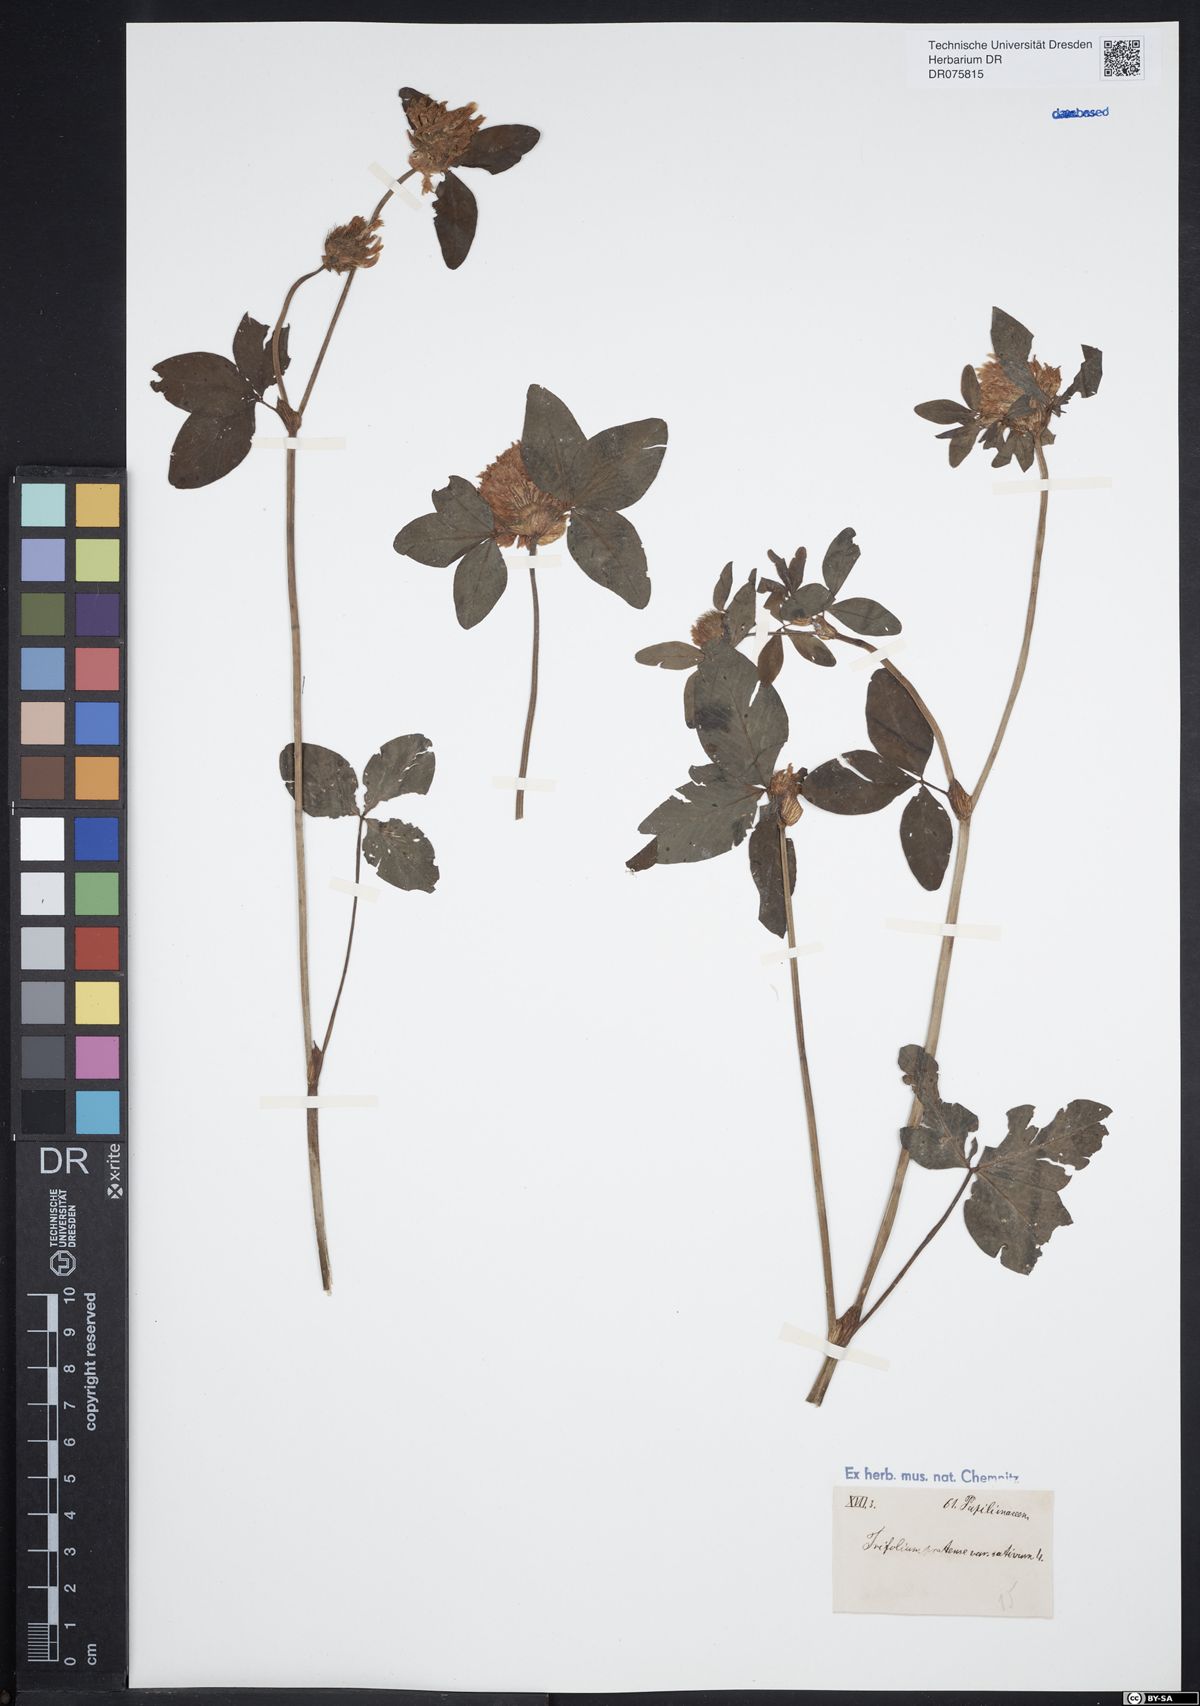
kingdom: Plantae
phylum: Tracheophyta
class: Magnoliopsida
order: Fabales
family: Fabaceae
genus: Trifolium
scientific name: Trifolium pratense
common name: Red clover
